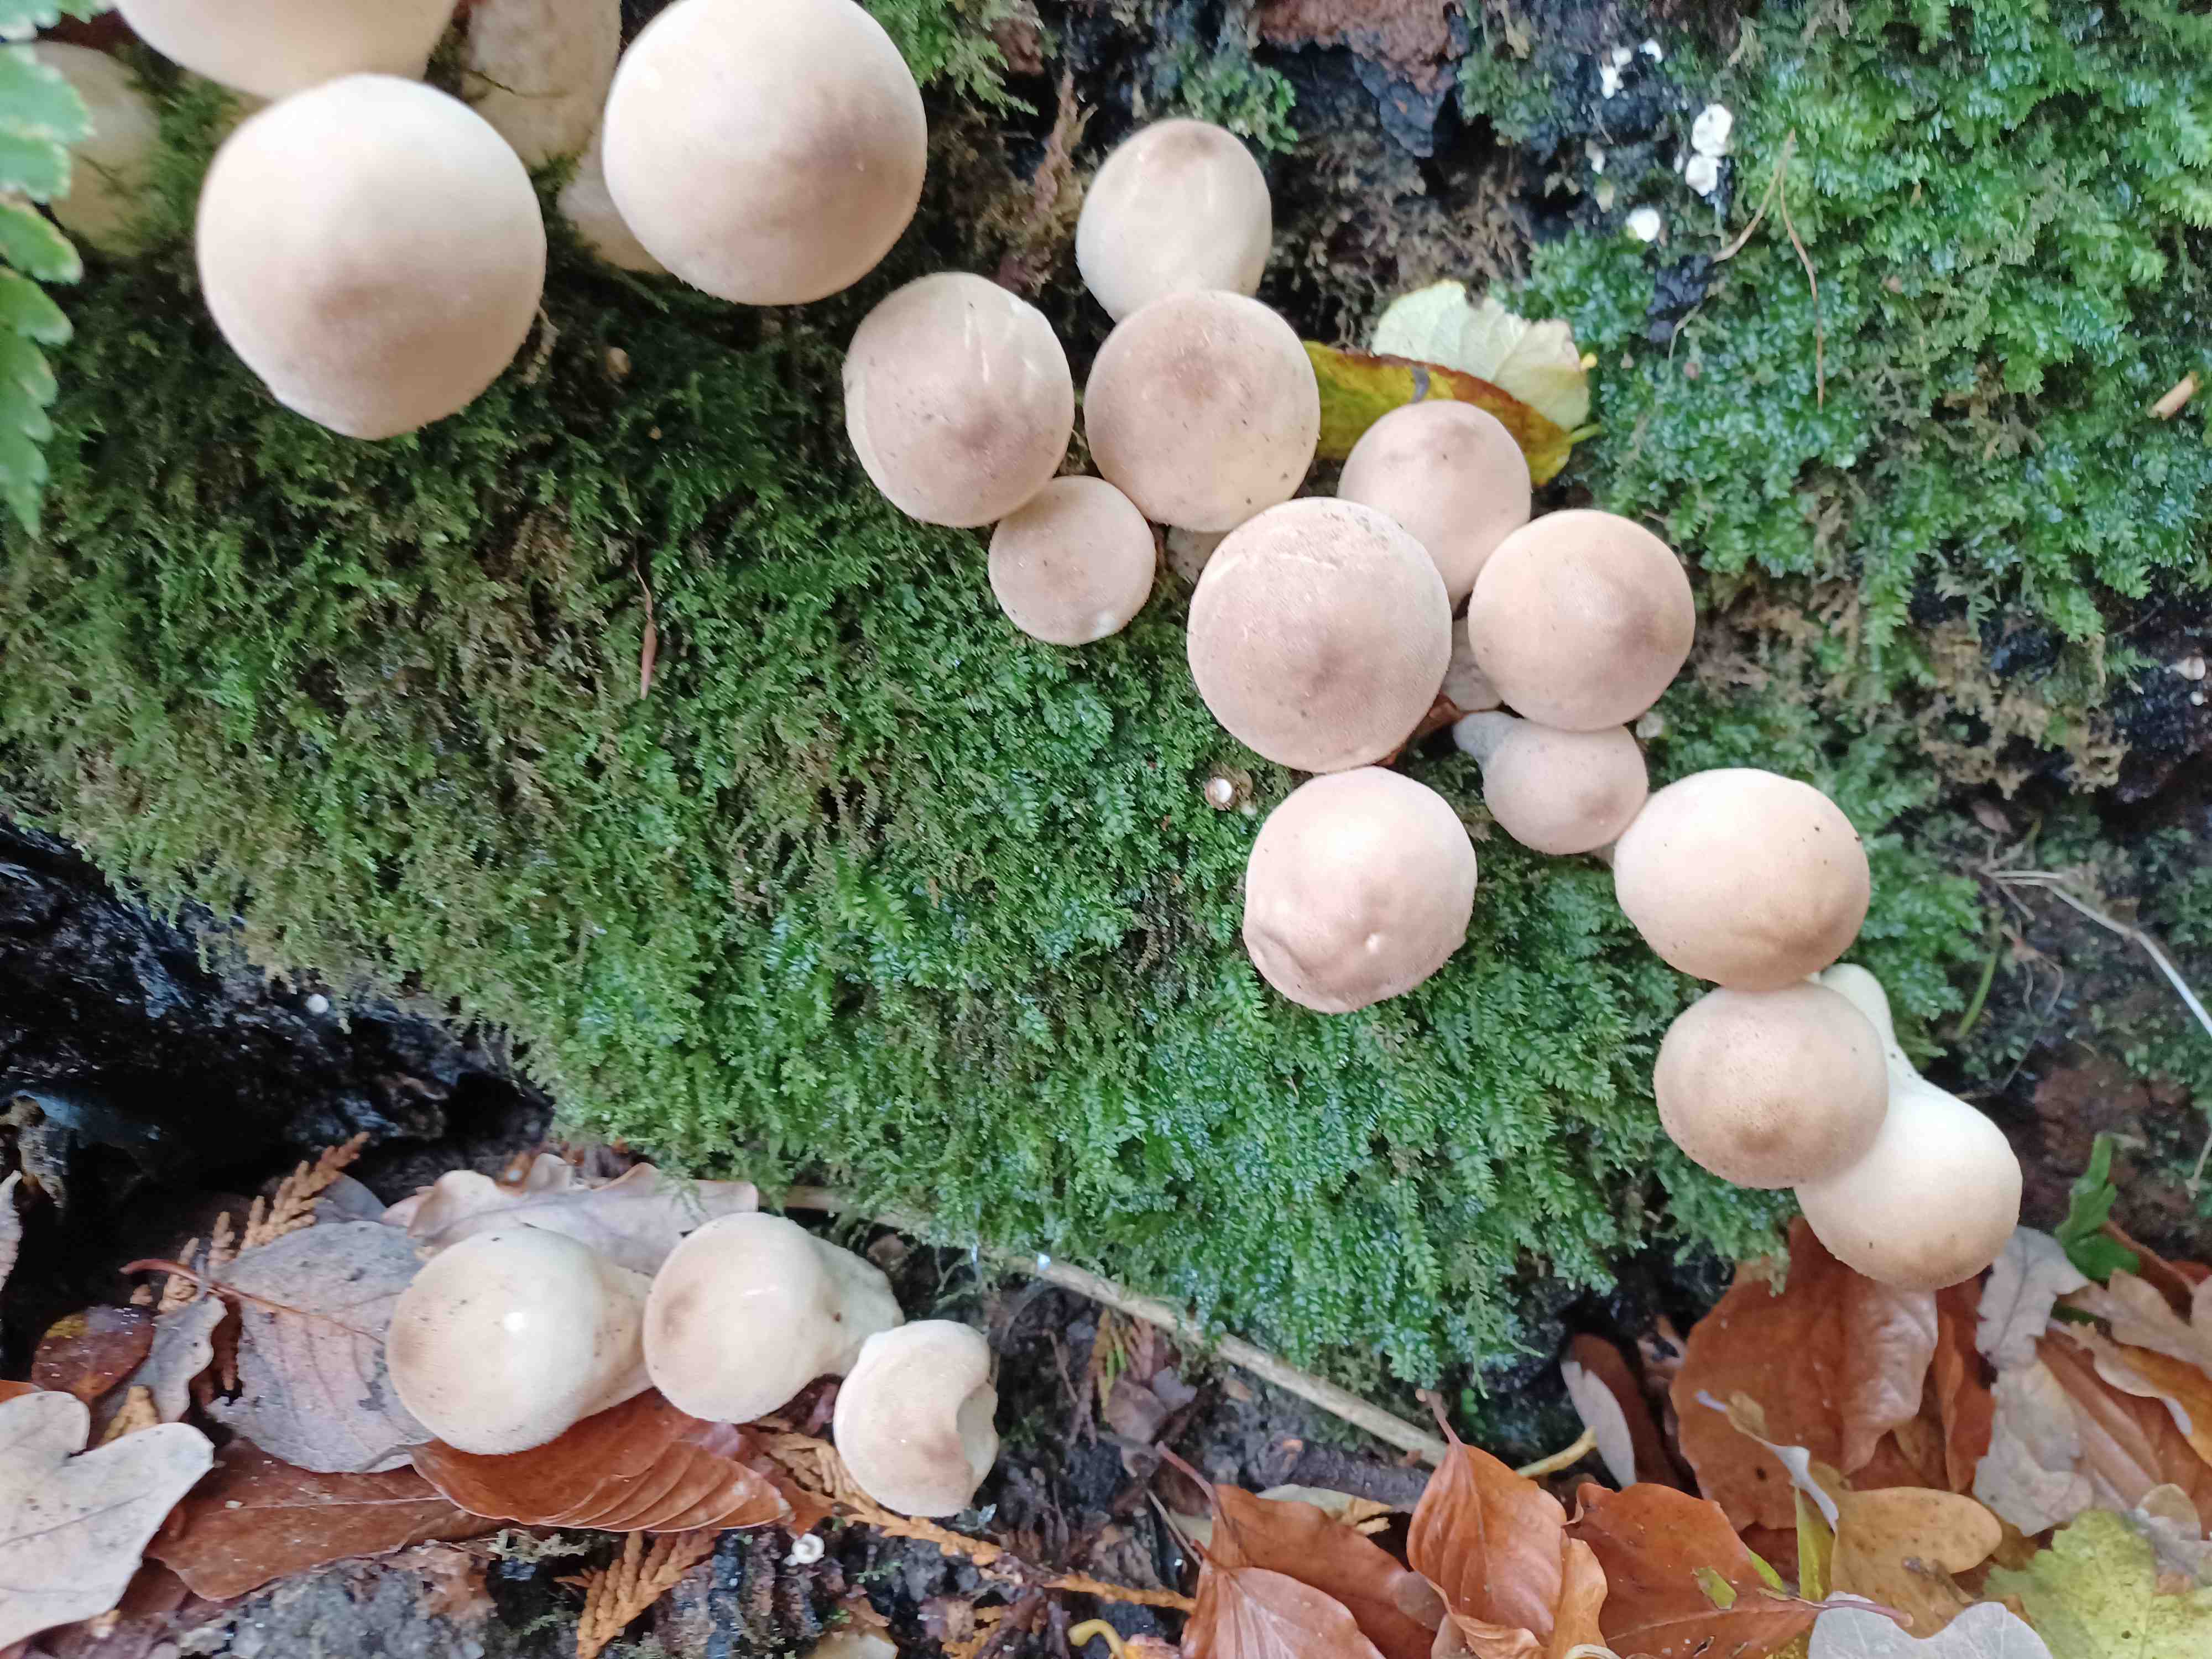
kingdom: Fungi
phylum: Basidiomycota
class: Agaricomycetes
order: Agaricales
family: Lycoperdaceae
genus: Apioperdon
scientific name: Apioperdon pyriforme
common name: pære-støvbold
